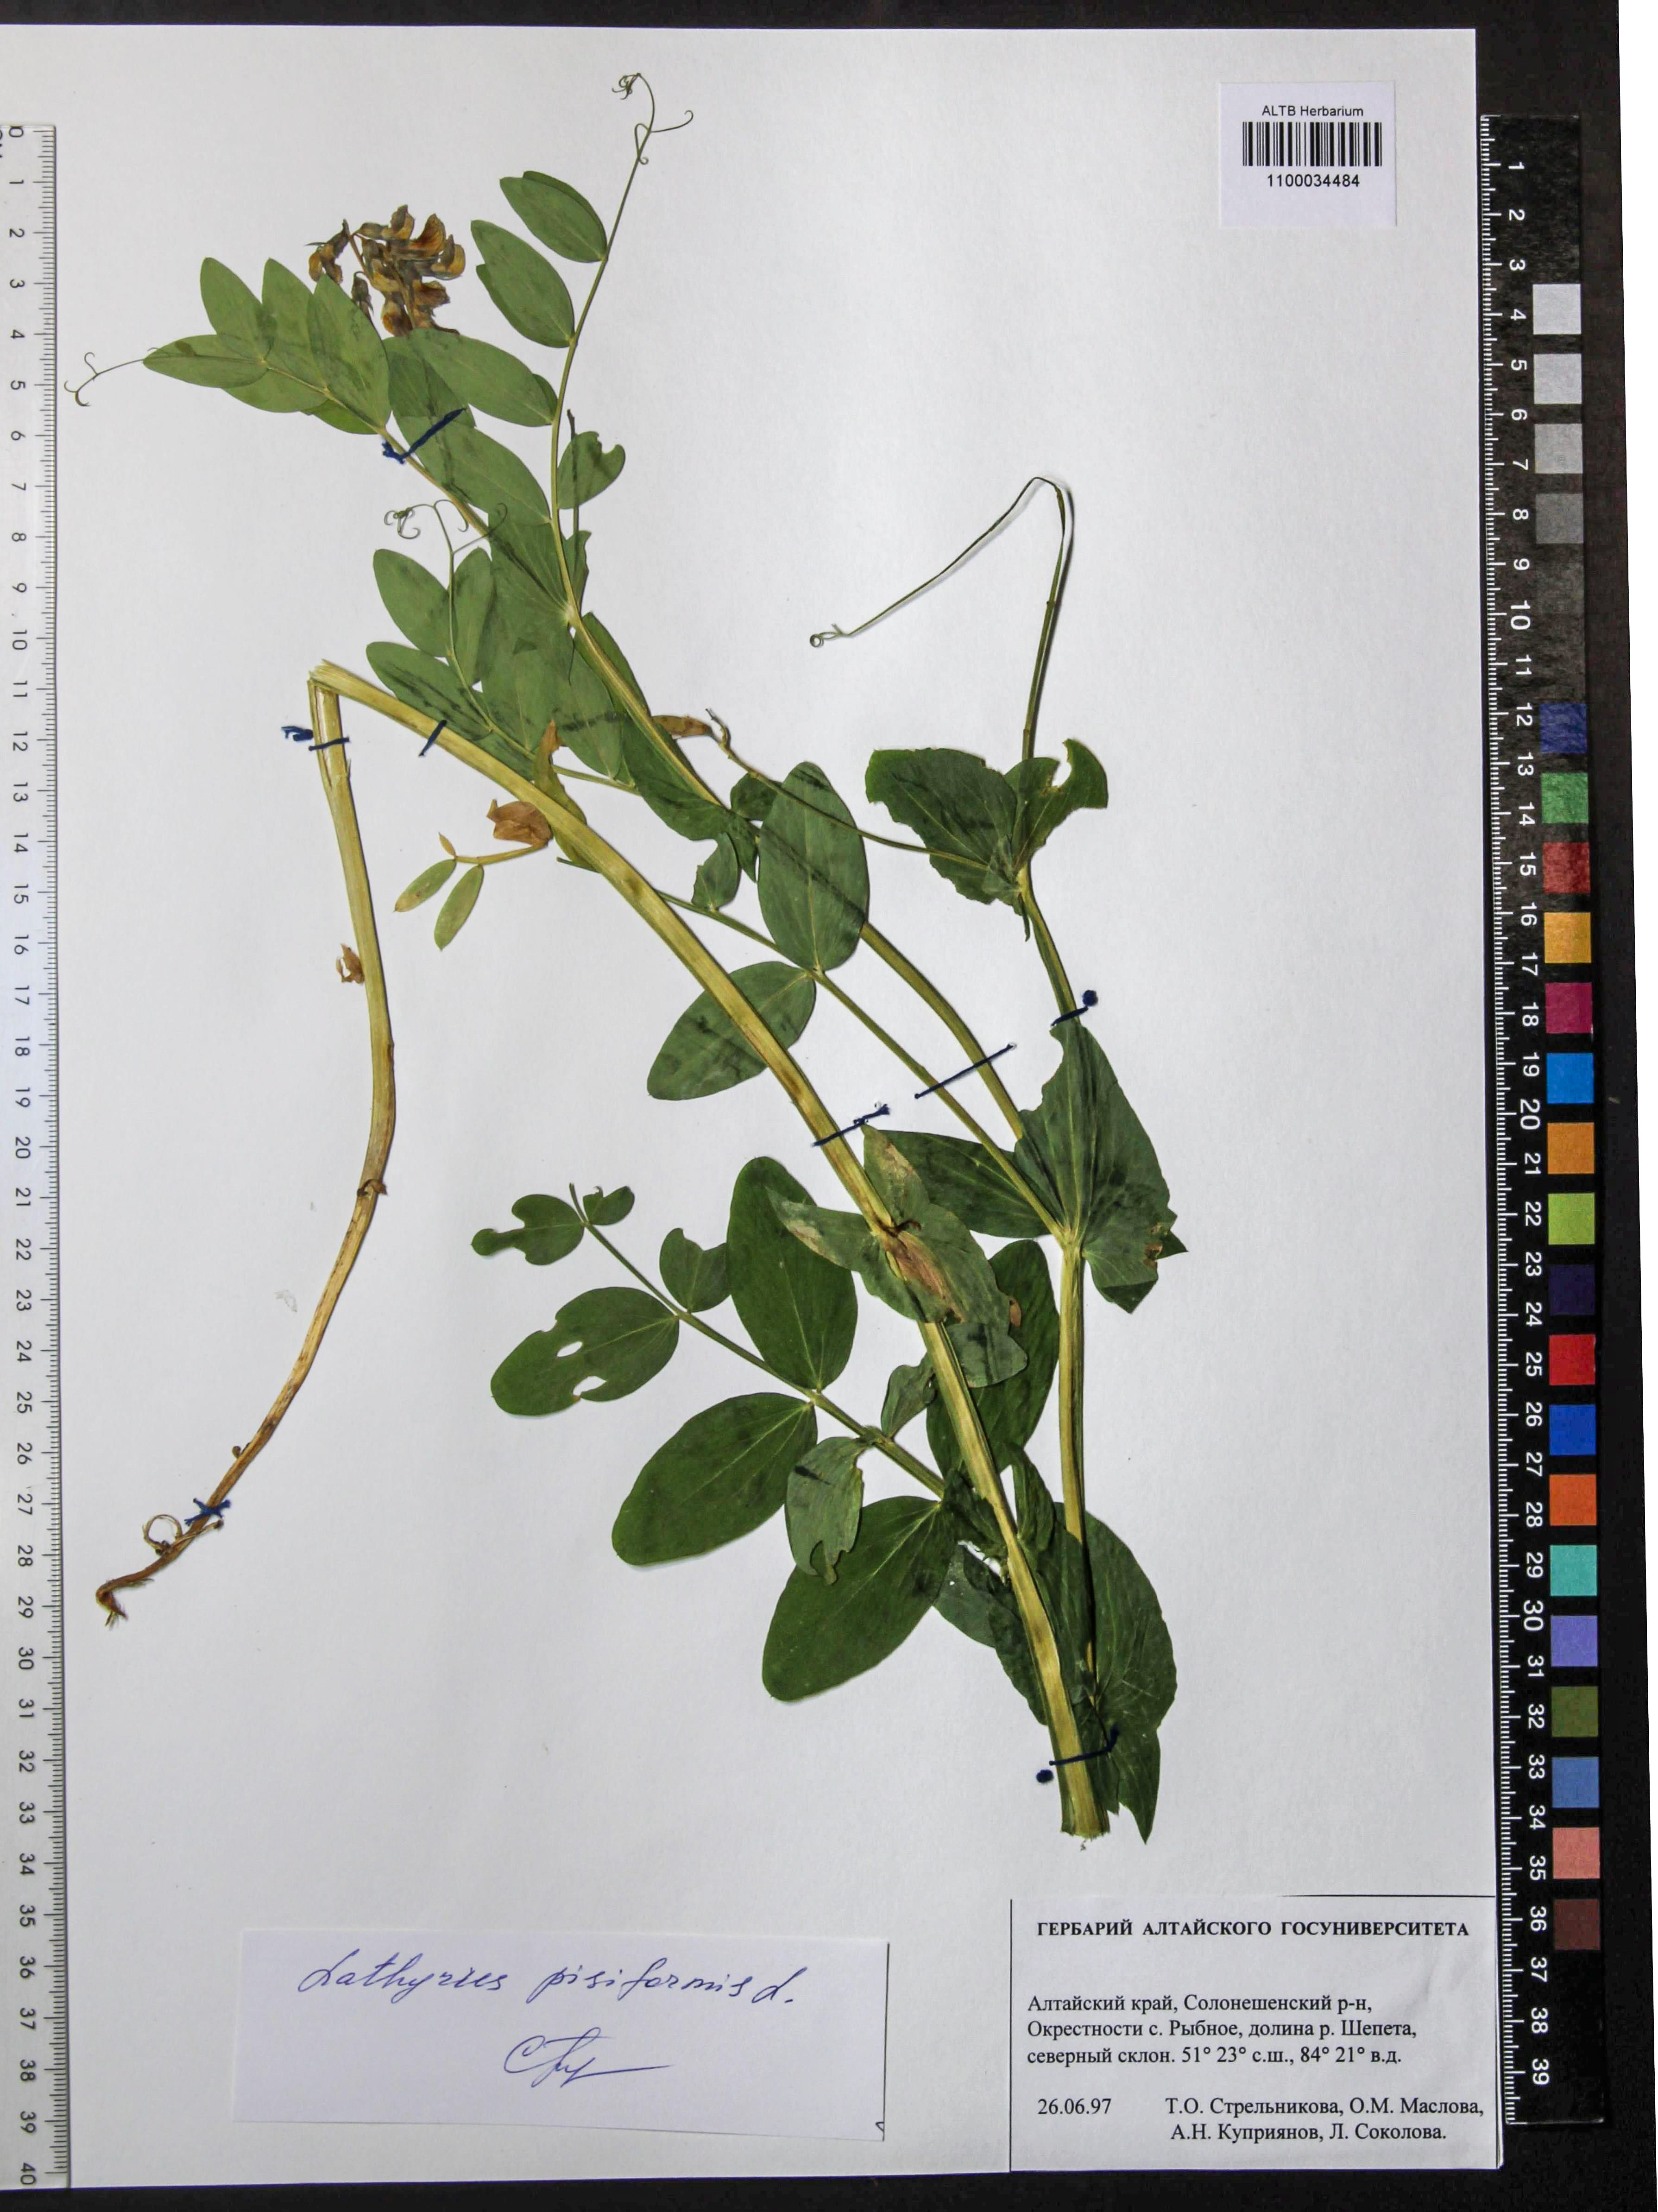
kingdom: Plantae
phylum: Tracheophyta
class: Magnoliopsida
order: Fabales
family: Fabaceae
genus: Lathyrus
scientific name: Lathyrus pisiformis
